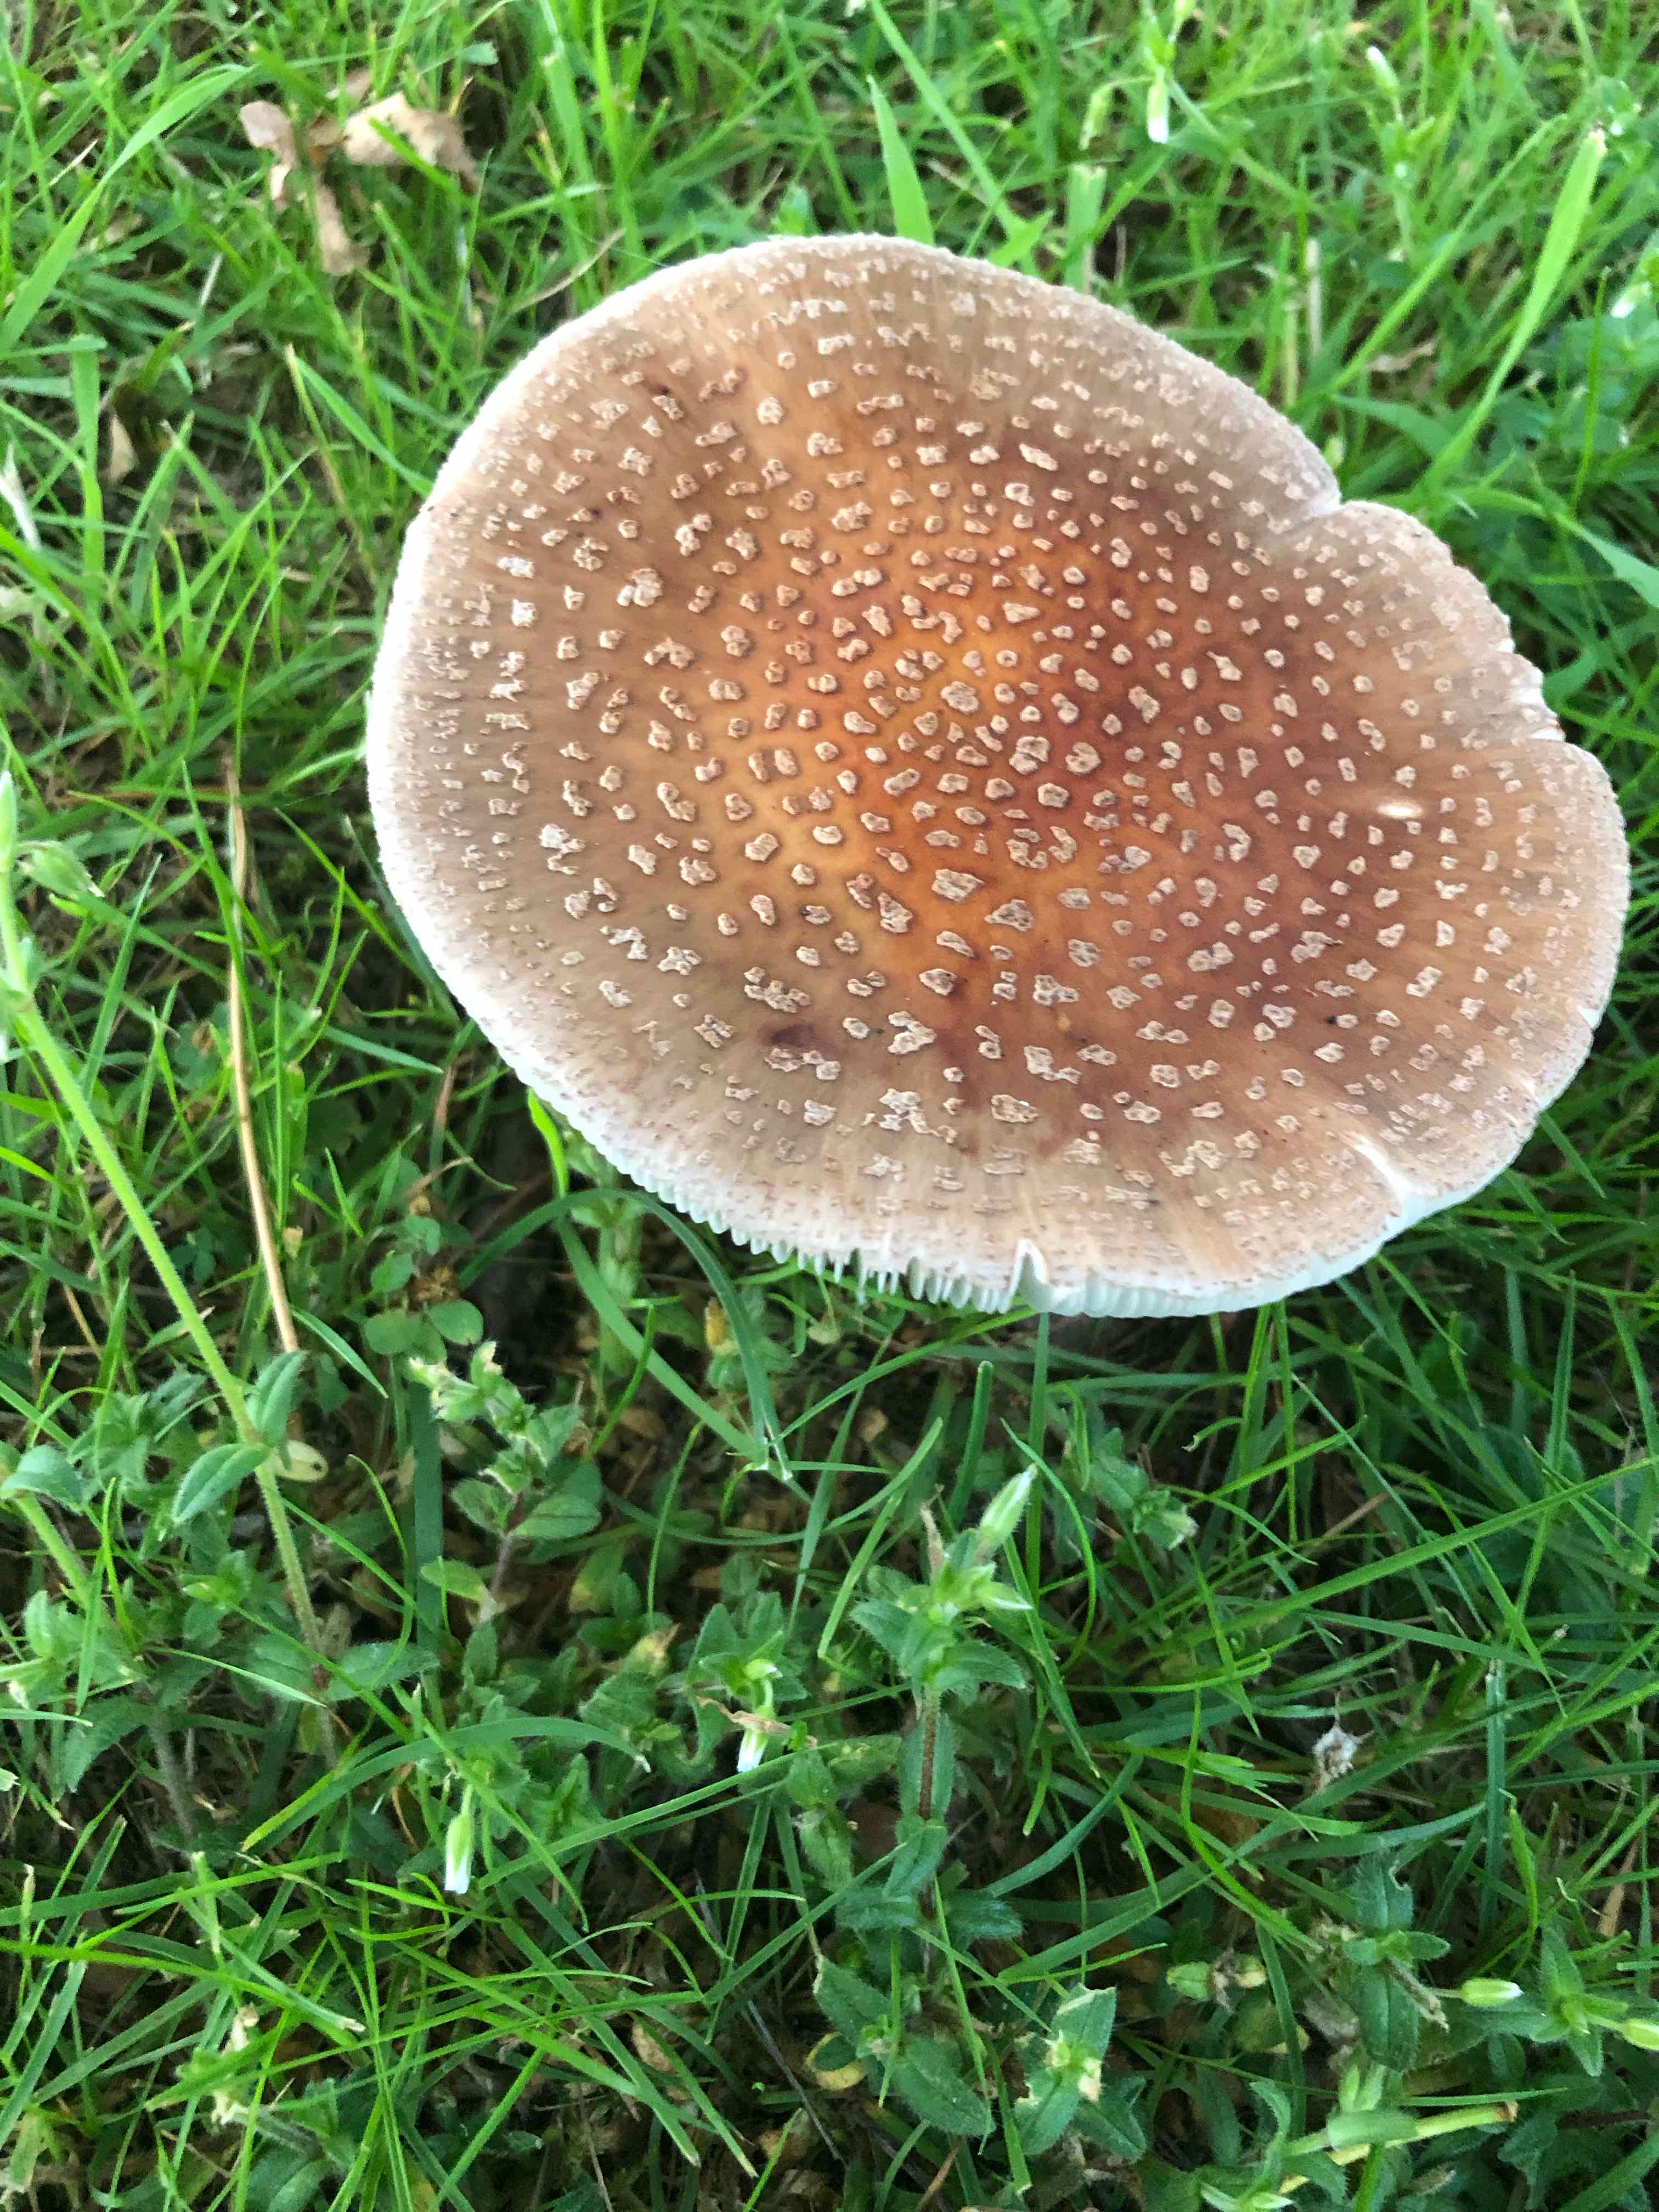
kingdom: Fungi
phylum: Basidiomycota
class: Agaricomycetes
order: Agaricales
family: Amanitaceae
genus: Amanita
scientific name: Amanita
